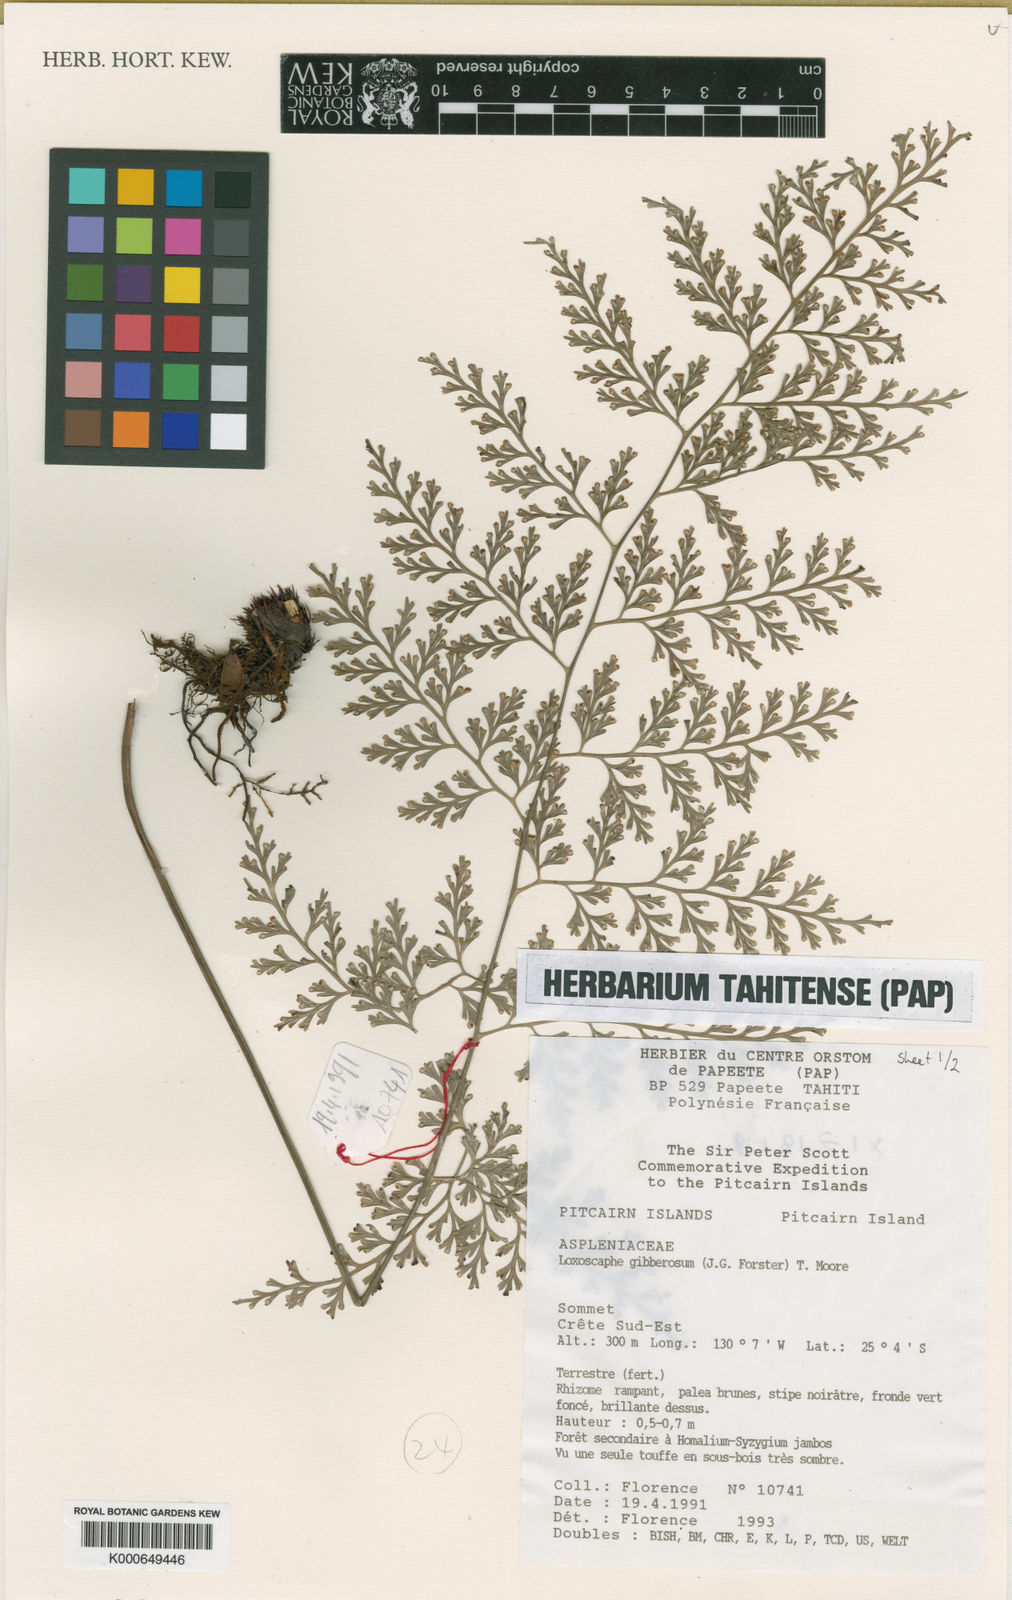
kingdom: Plantae
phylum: Tracheophyta
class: Polypodiopsida
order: Polypodiales
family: Aspleniaceae
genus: Asplenium
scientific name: Asplenium gibberosum
